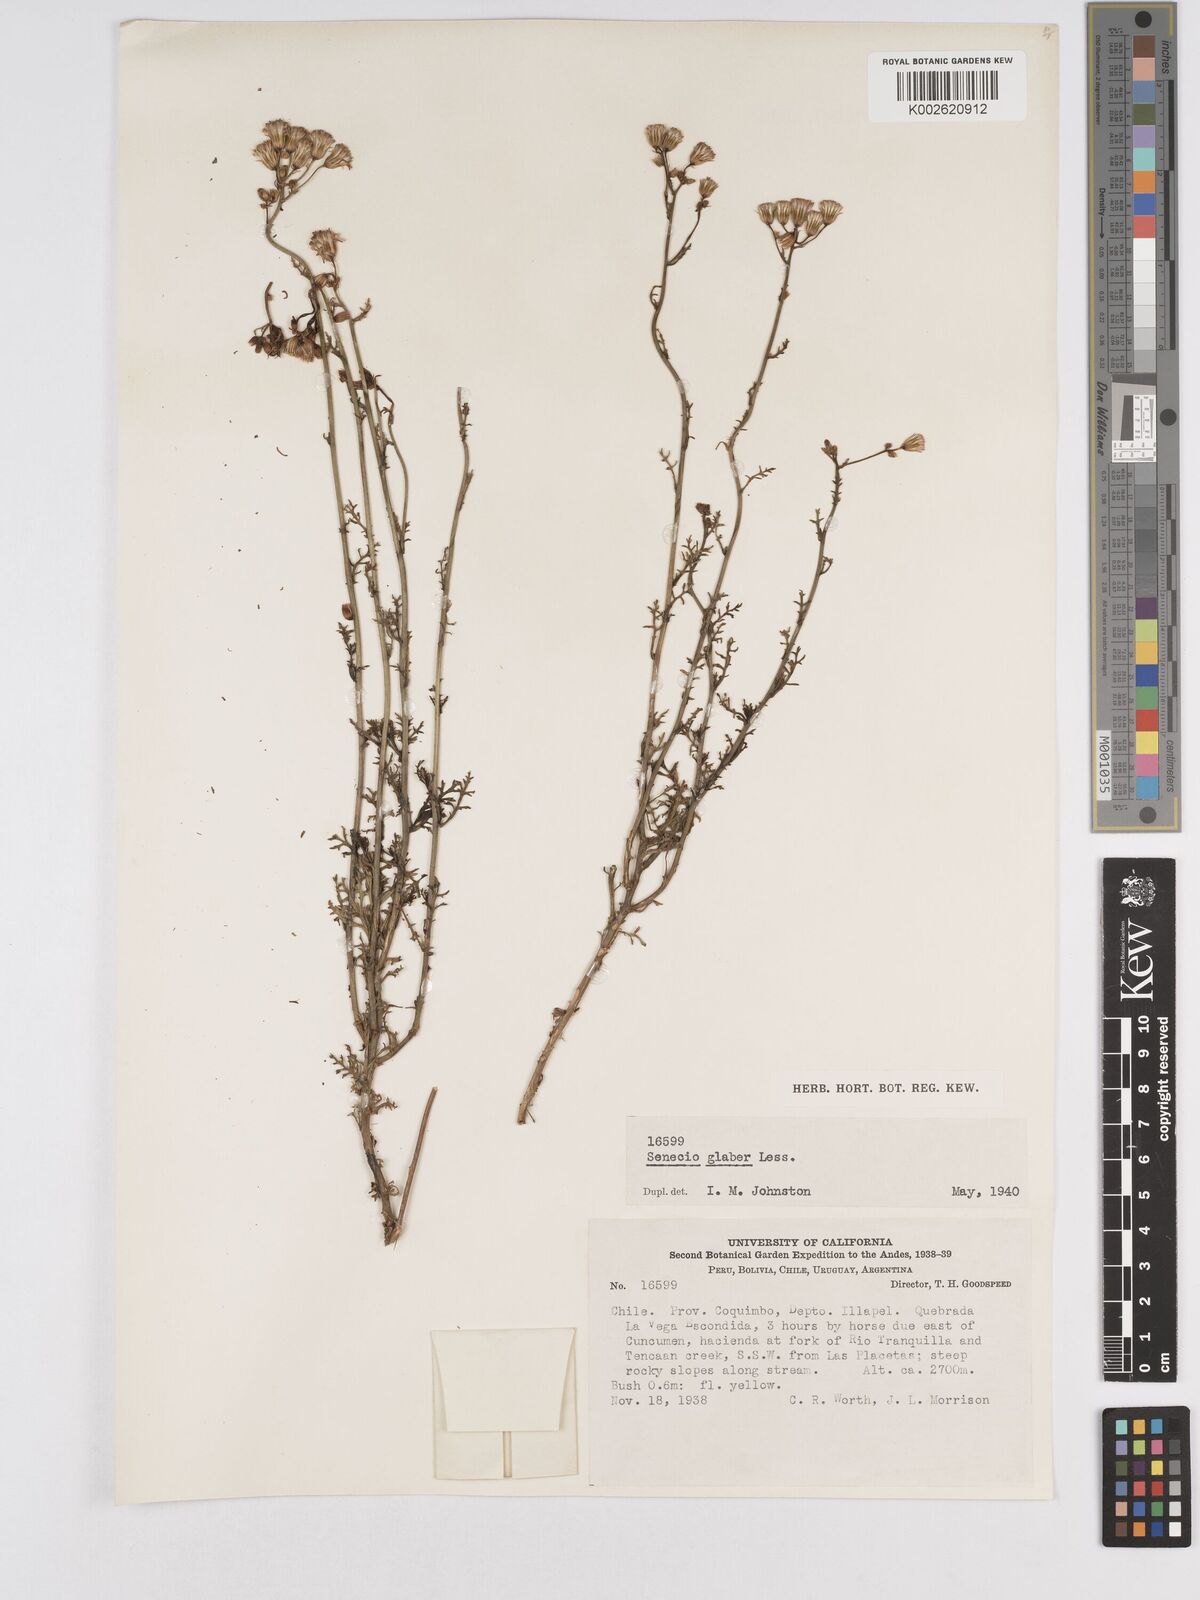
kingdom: Plantae
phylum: Tracheophyta
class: Magnoliopsida
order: Asterales
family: Asteraceae
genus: Senecio
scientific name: Senecio glaber
